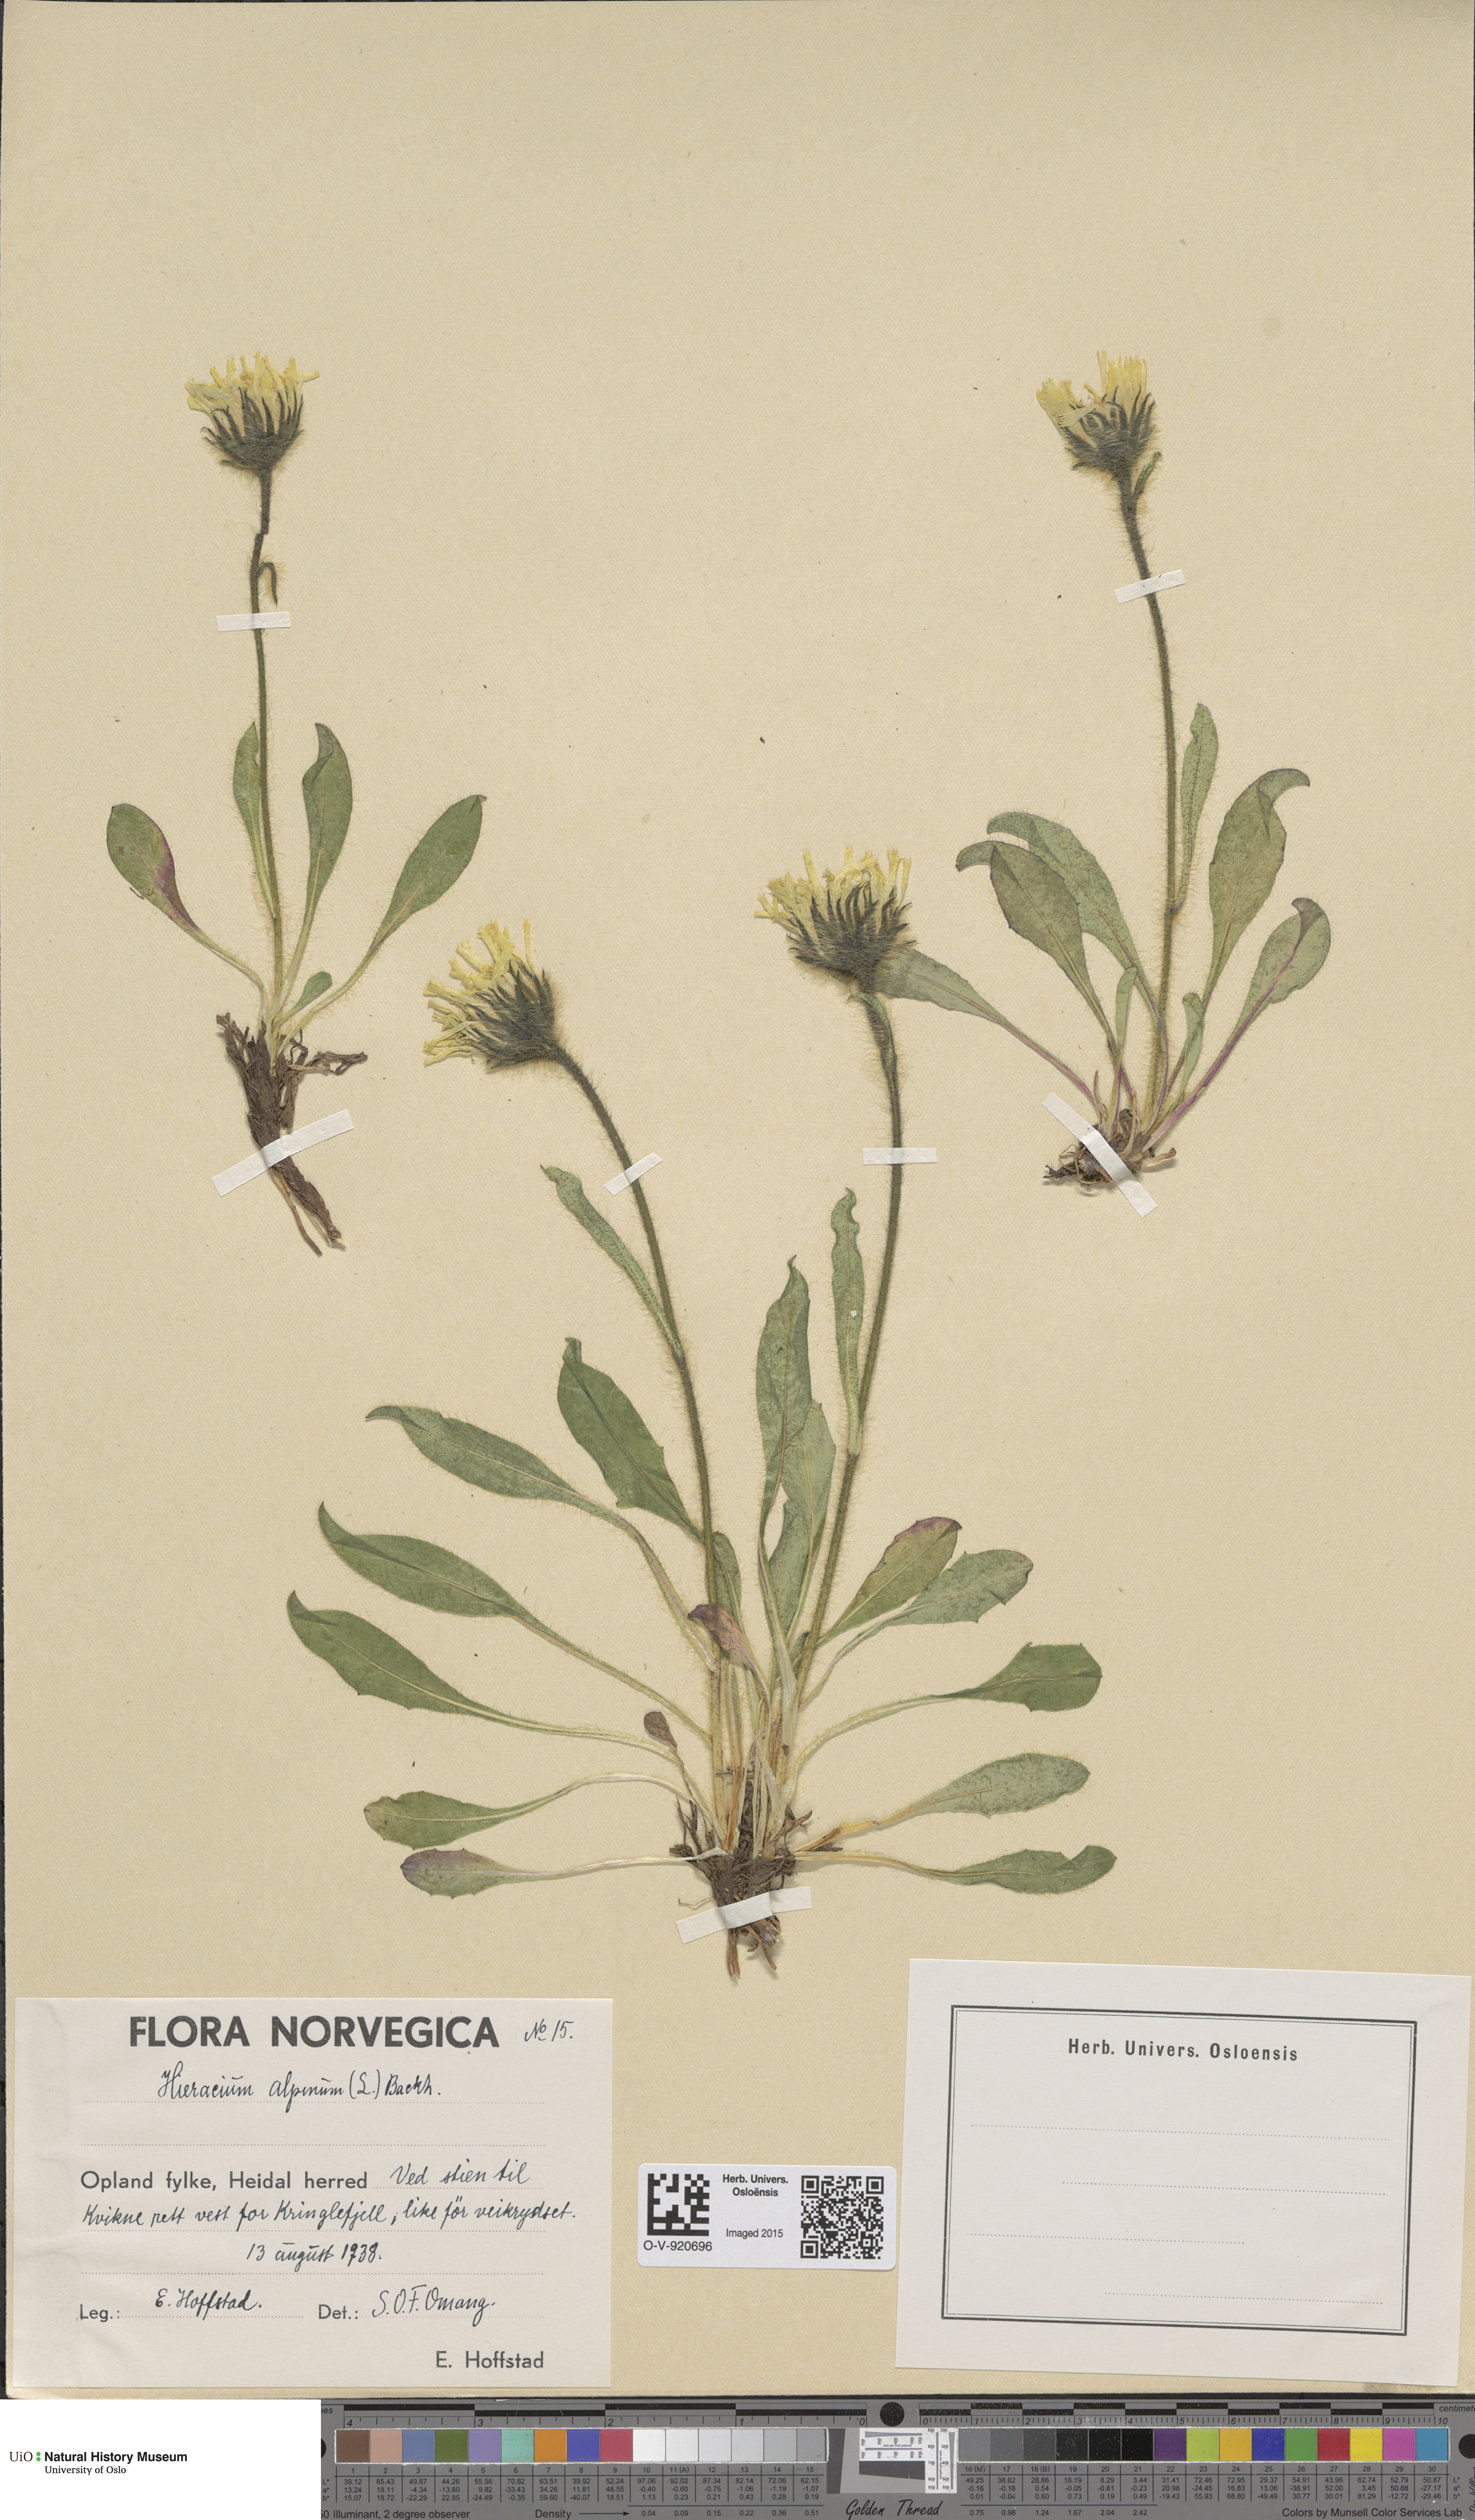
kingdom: Plantae
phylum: Tracheophyta
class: Magnoliopsida
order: Asterales
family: Asteraceae
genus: Hieracium
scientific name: Hieracium alpinum
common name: Alpine hawkweed
